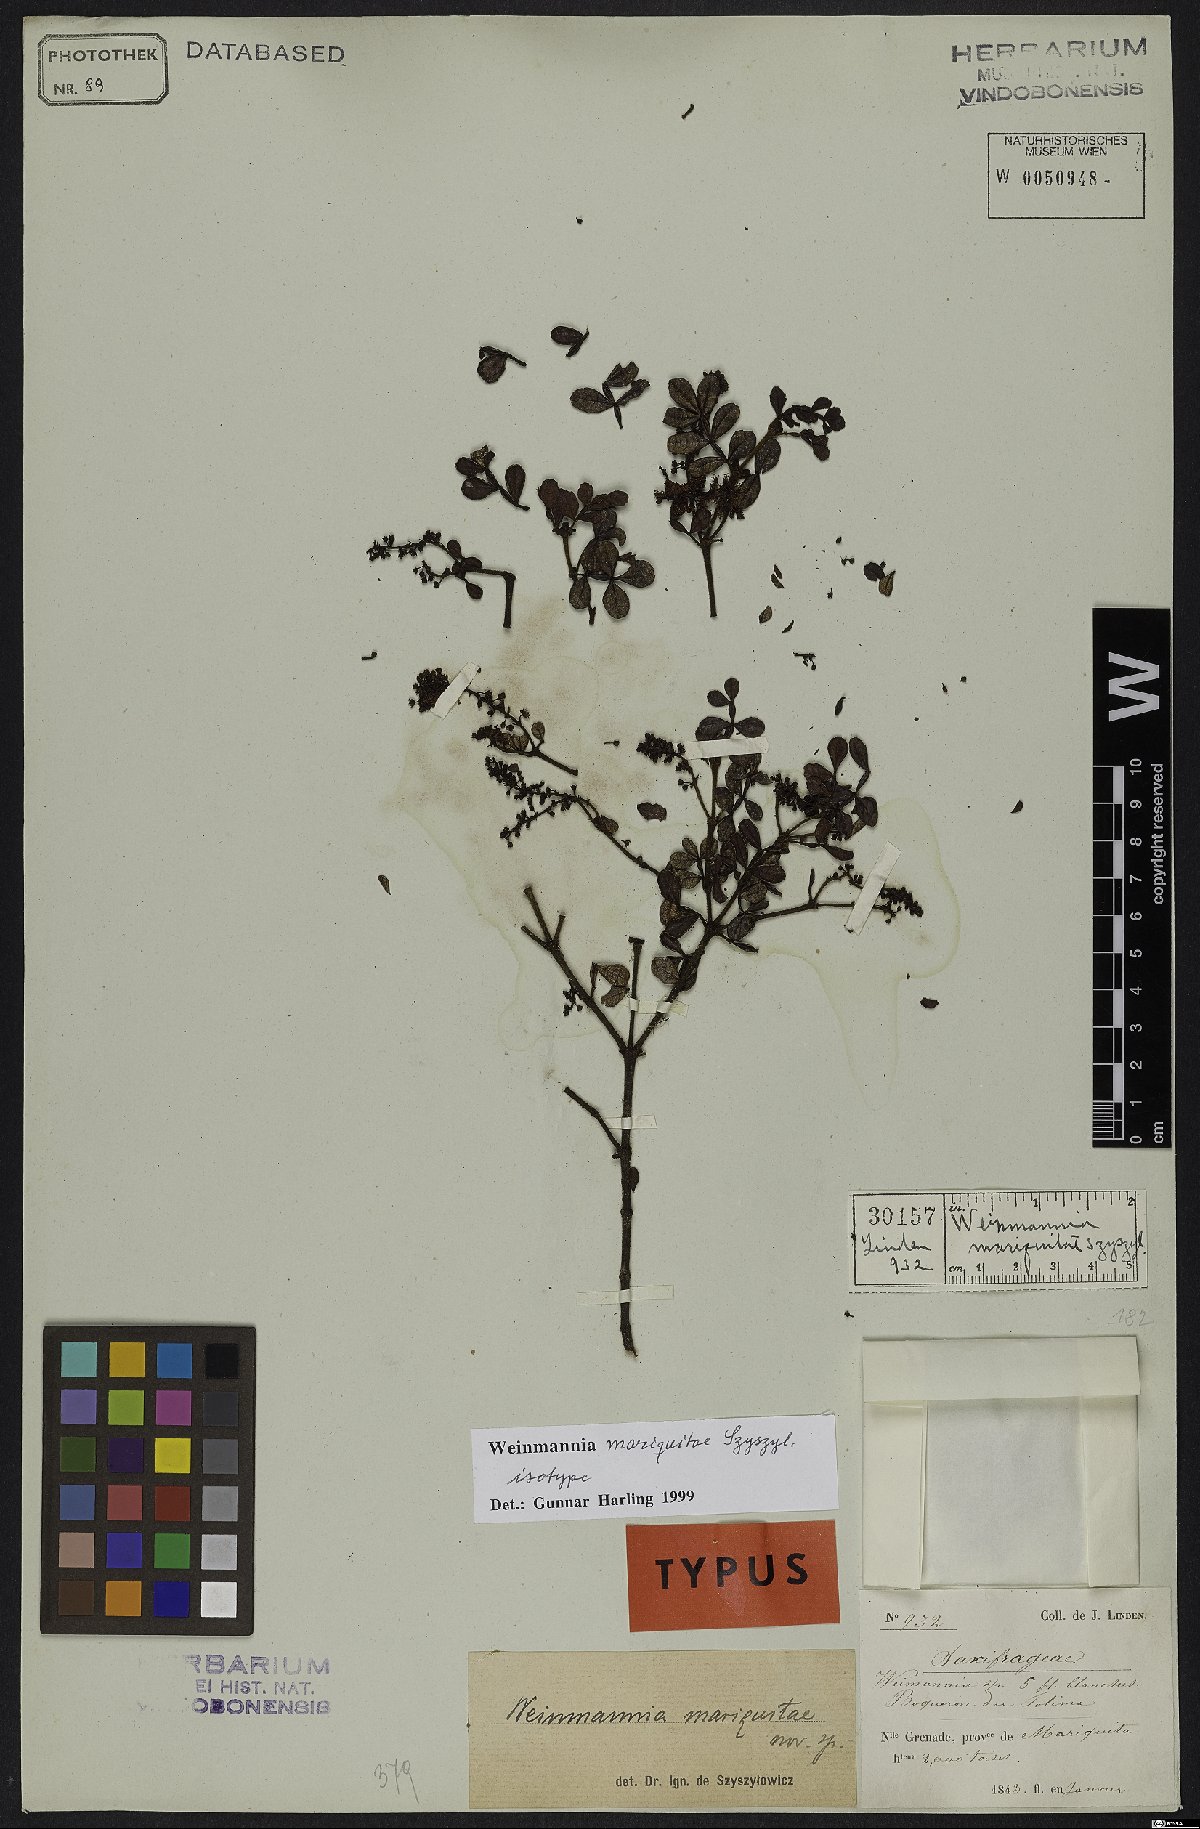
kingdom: Plantae
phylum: Tracheophyta
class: Magnoliopsida
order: Oxalidales
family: Cunoniaceae
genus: Weinmannia
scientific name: Weinmannia mariquitae
